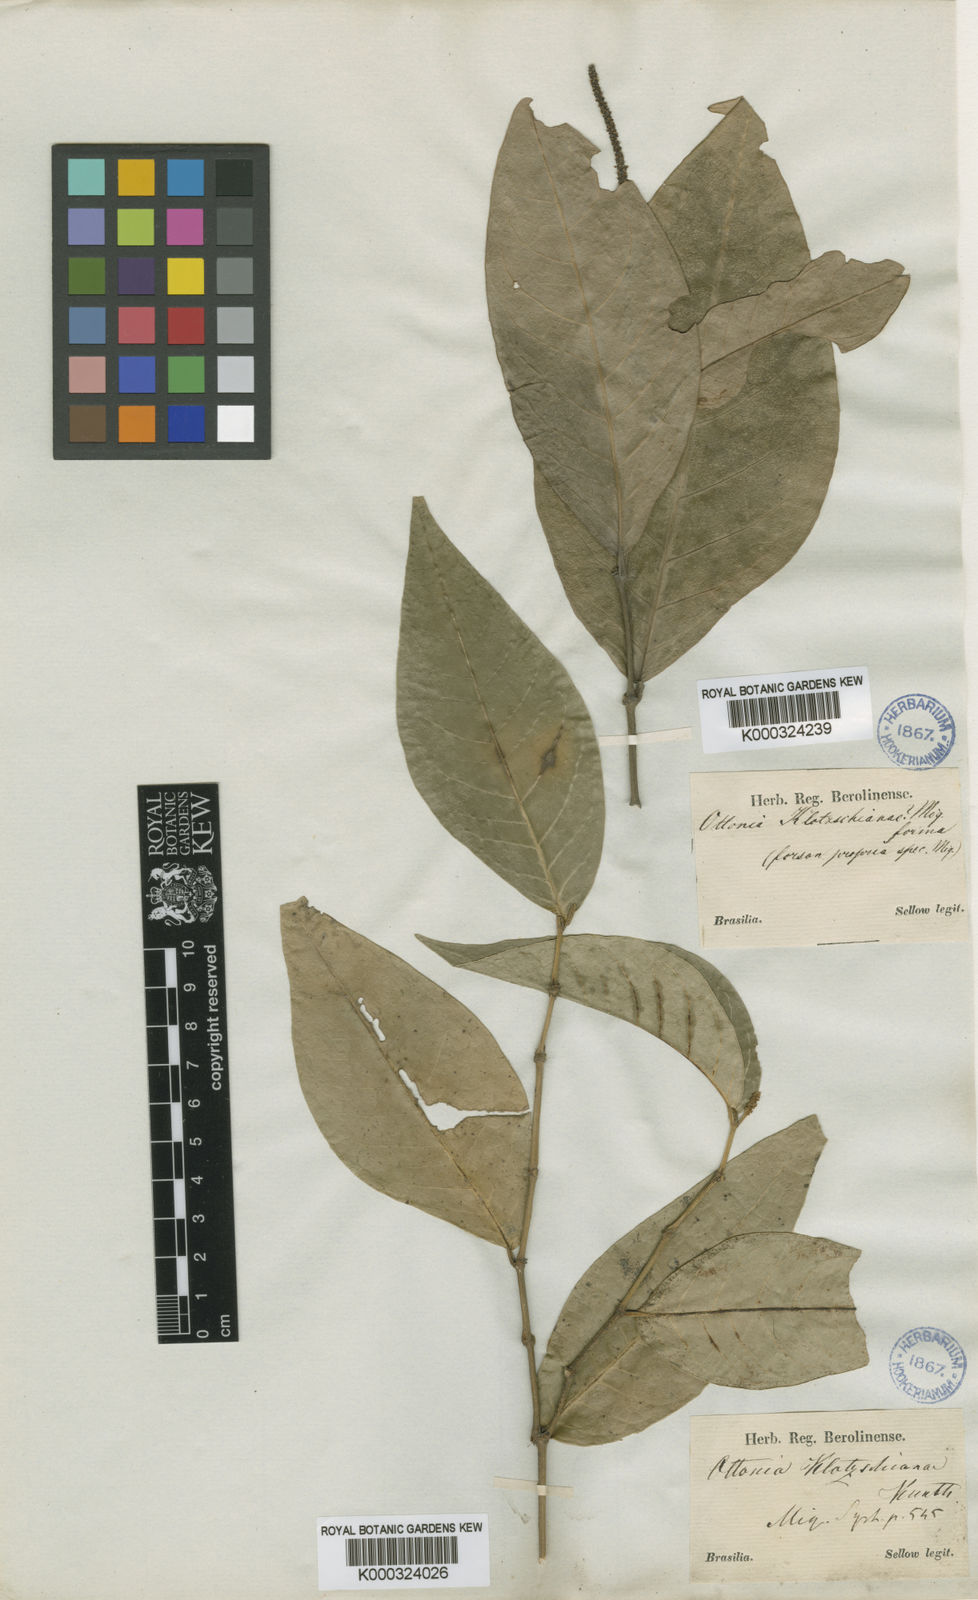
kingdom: Plantae
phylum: Tracheophyta
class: Magnoliopsida
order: Piperales
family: Piperaceae
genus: Piper
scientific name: Piper klotzschianum
